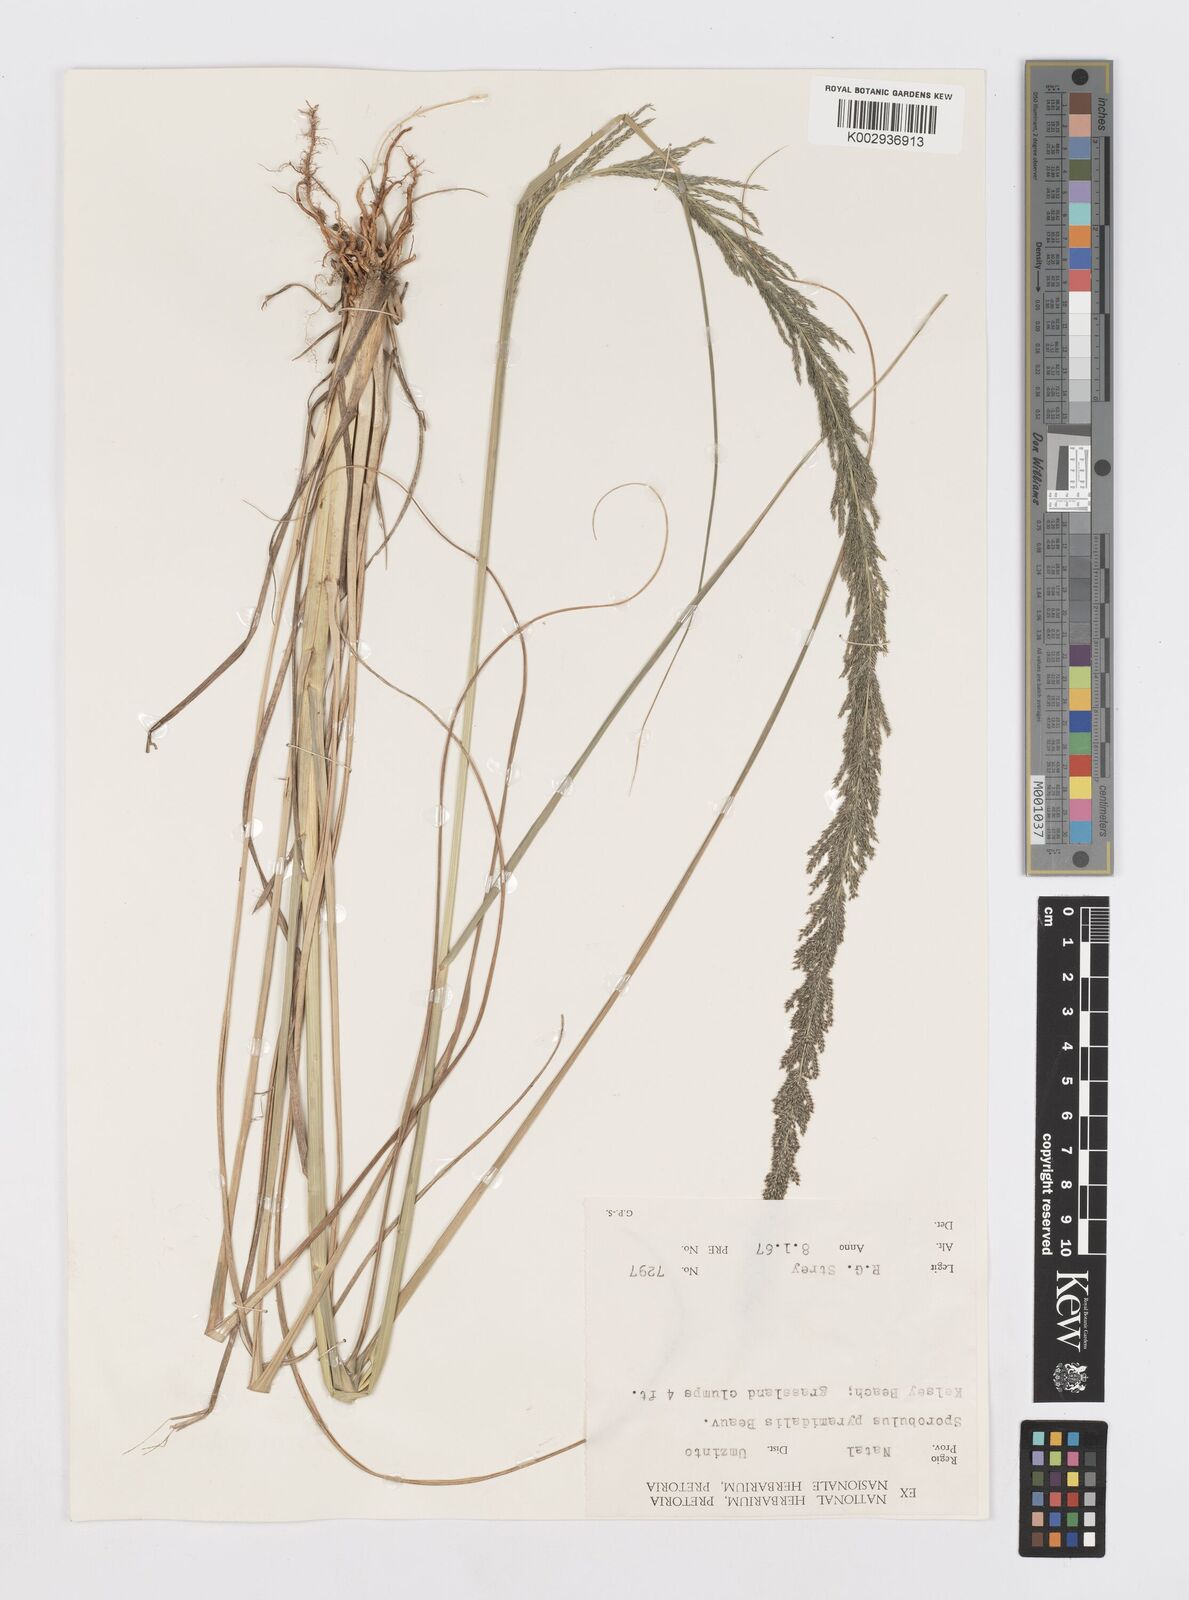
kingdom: Plantae
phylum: Tracheophyta
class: Liliopsida
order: Poales
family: Poaceae
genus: Sporobolus
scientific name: Sporobolus natalensis
